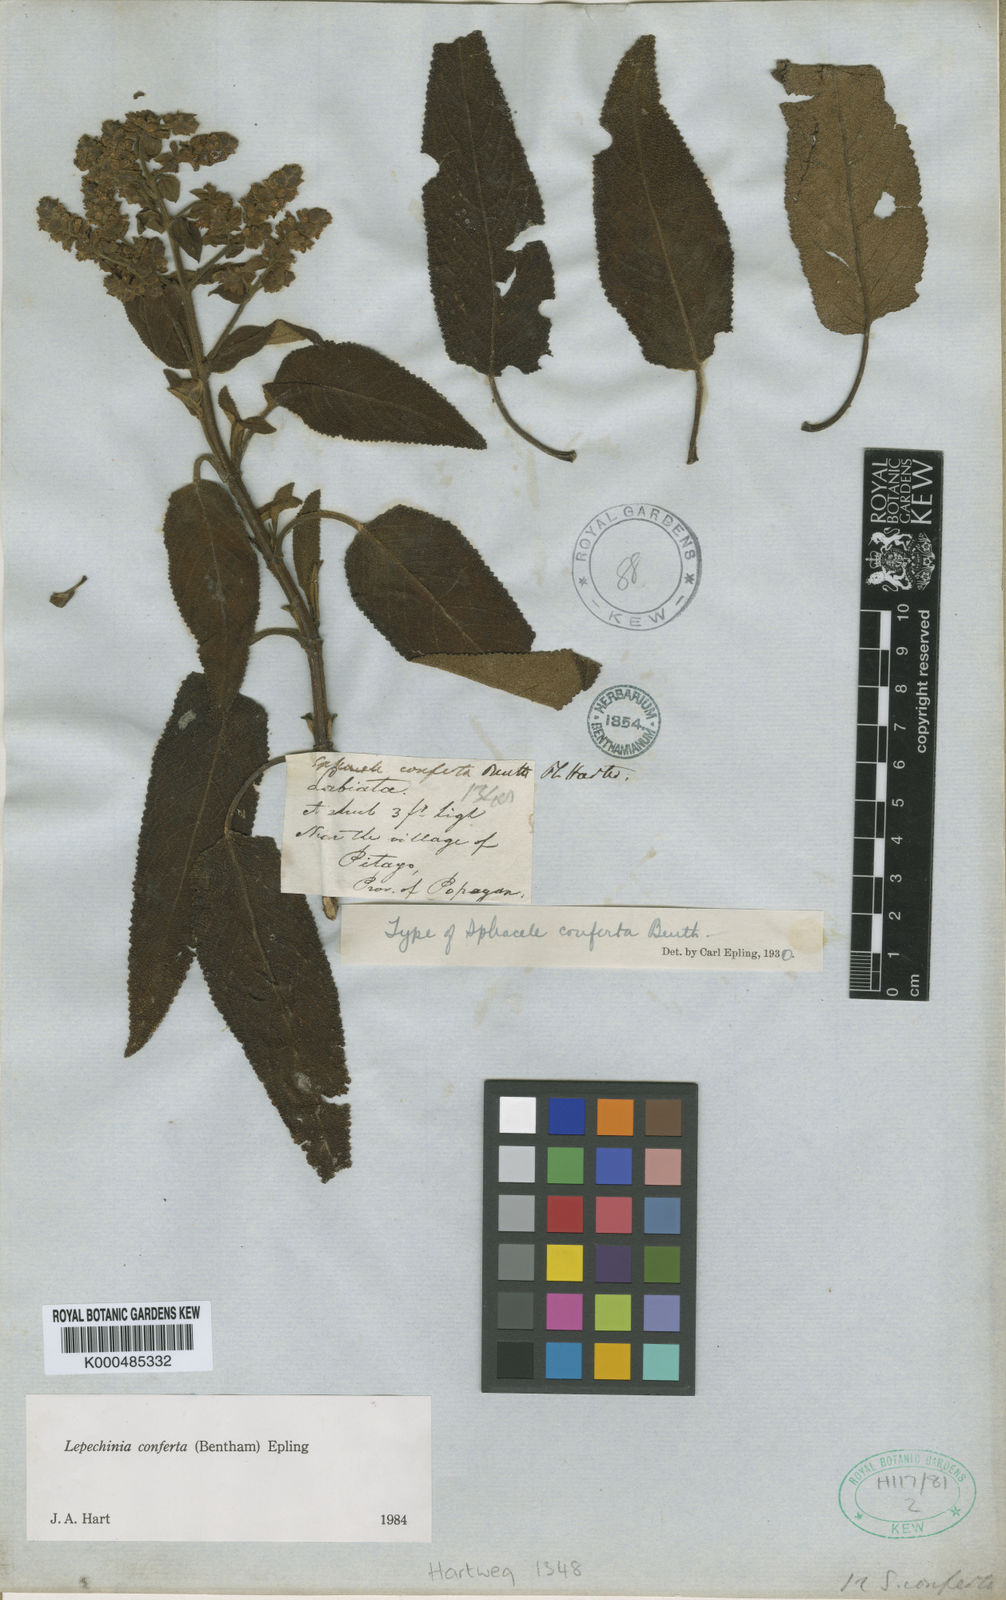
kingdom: Plantae
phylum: Tracheophyta
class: Magnoliopsida
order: Lamiales
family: Lamiaceae
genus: Lepechinia
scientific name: Lepechinia conferta
